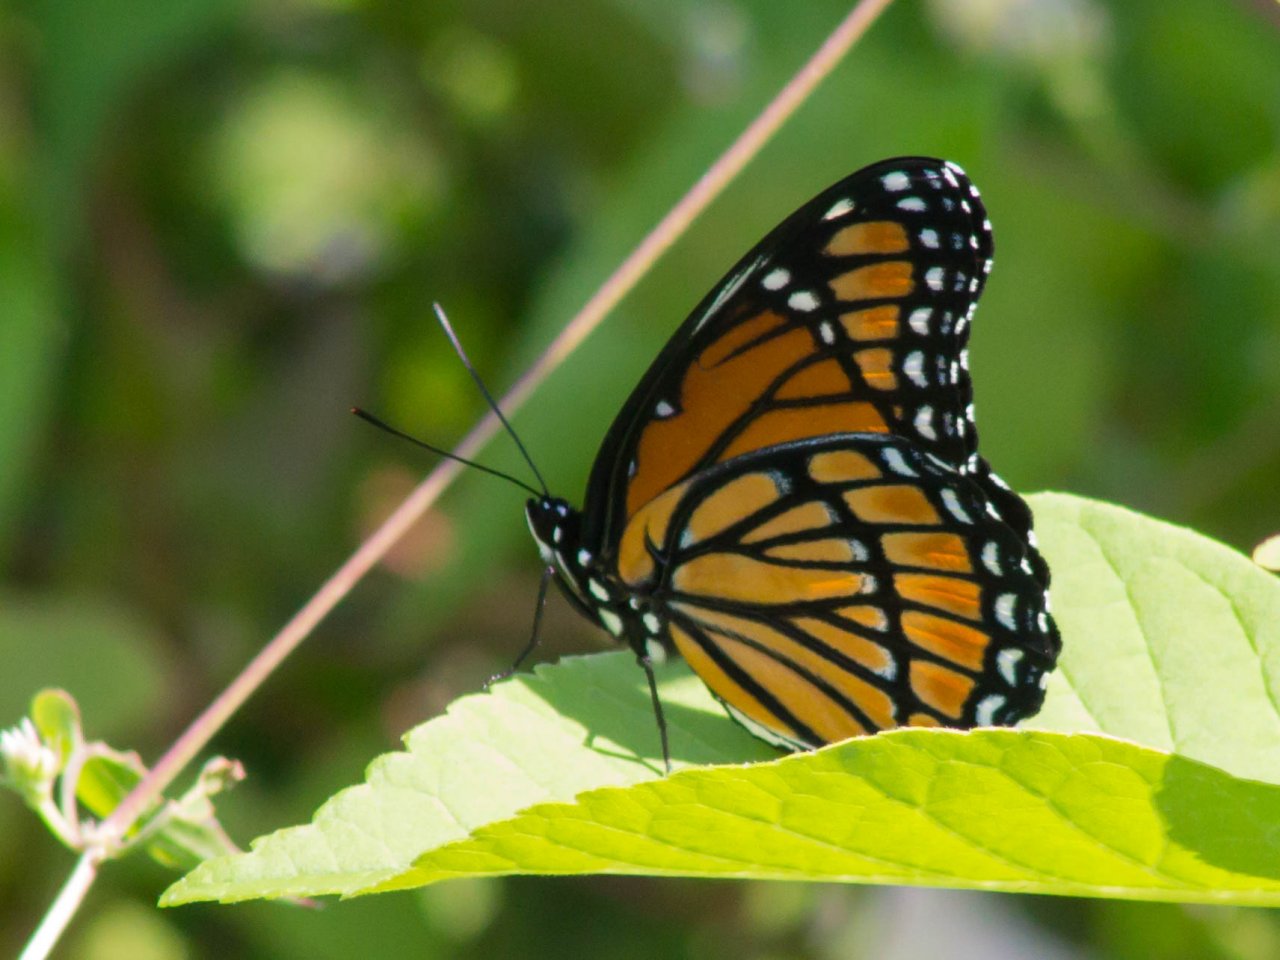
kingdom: Animalia
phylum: Arthropoda
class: Insecta
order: Lepidoptera
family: Nymphalidae
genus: Limenitis
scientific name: Limenitis archippus
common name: Viceroy
